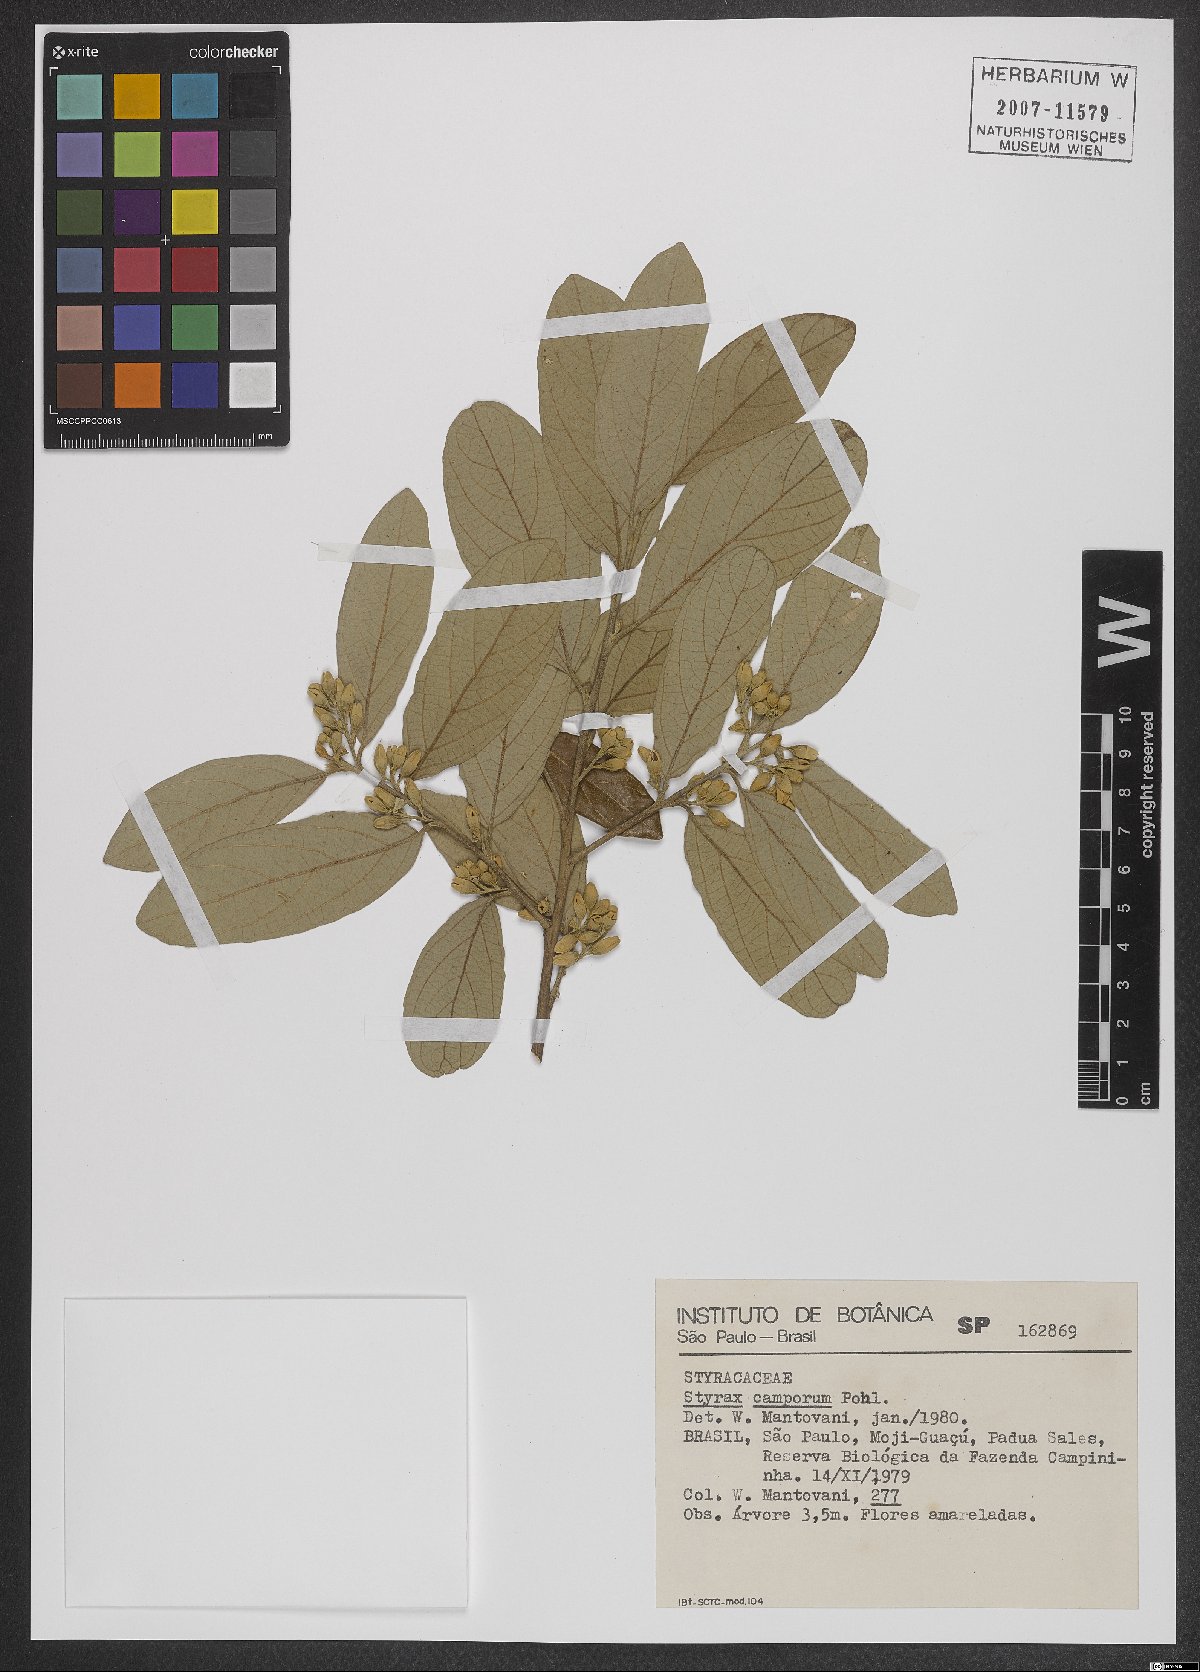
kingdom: Plantae
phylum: Tracheophyta
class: Magnoliopsida
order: Ericales
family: Styracaceae
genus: Styrax
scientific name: Styrax camporum
